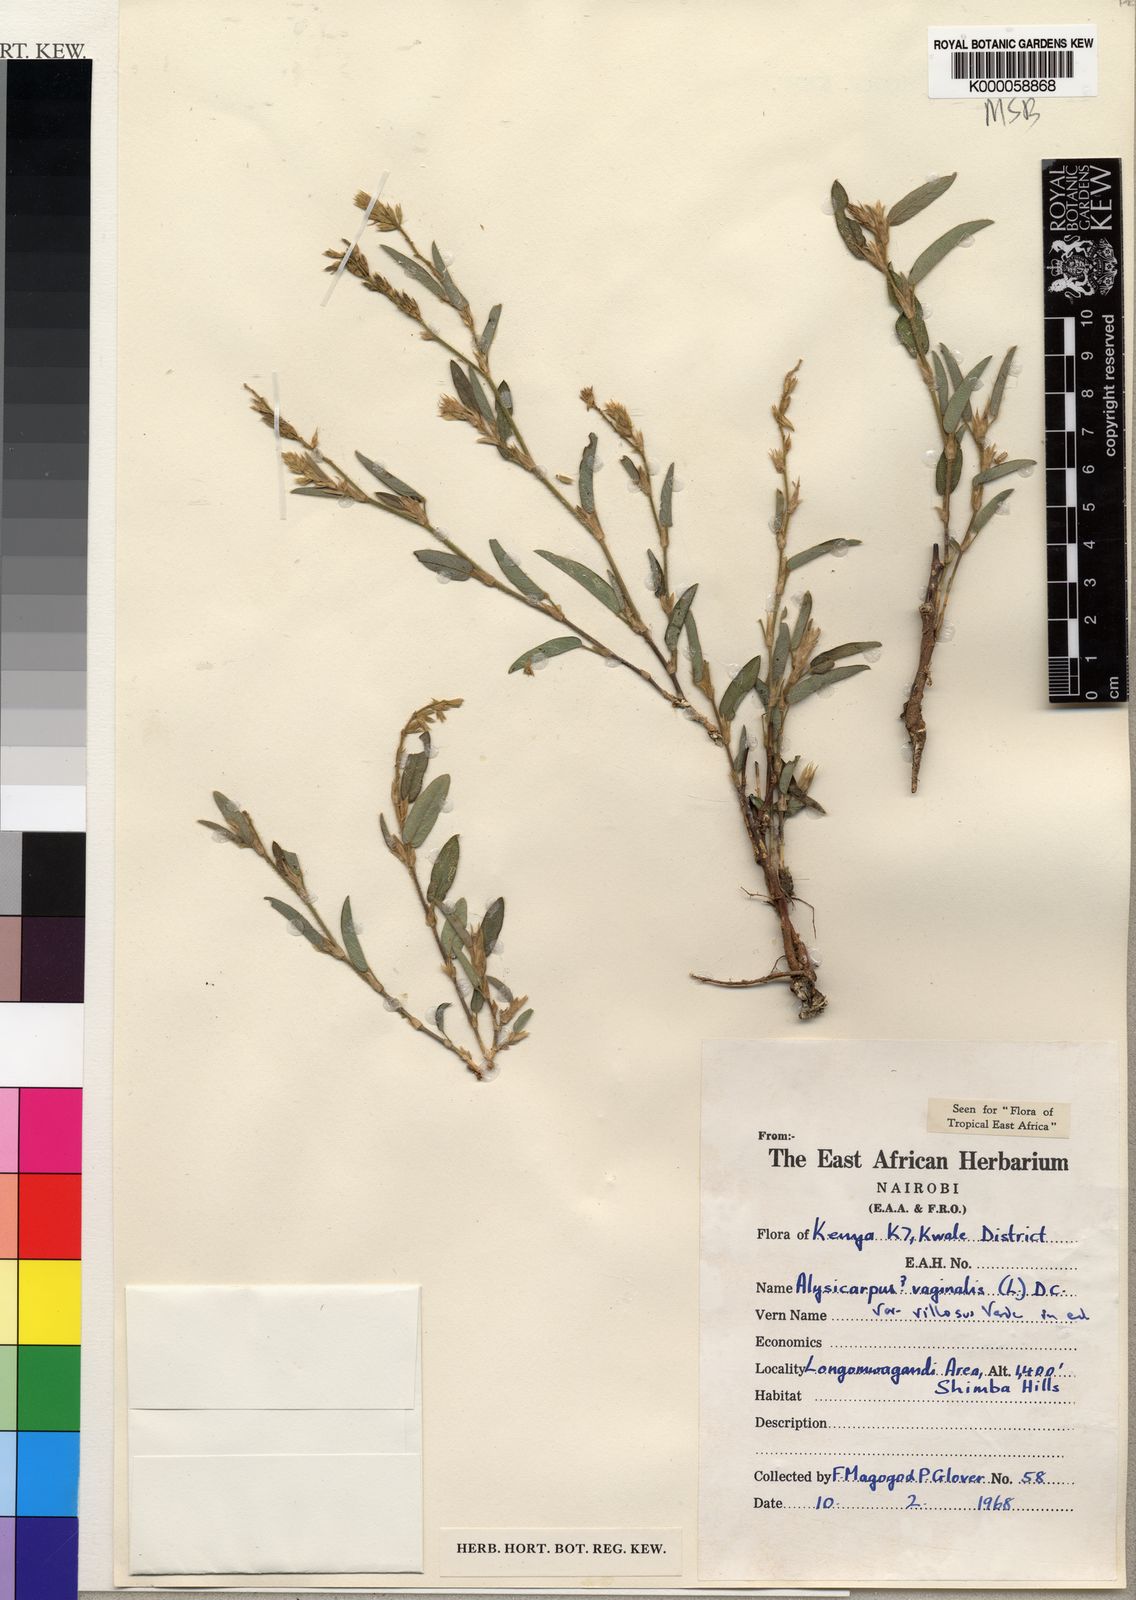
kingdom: Plantae
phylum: Tracheophyta
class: Magnoliopsida
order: Fabales
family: Fabaceae
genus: Alysicarpus
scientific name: Alysicarpus vaginalis
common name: White moneywort
